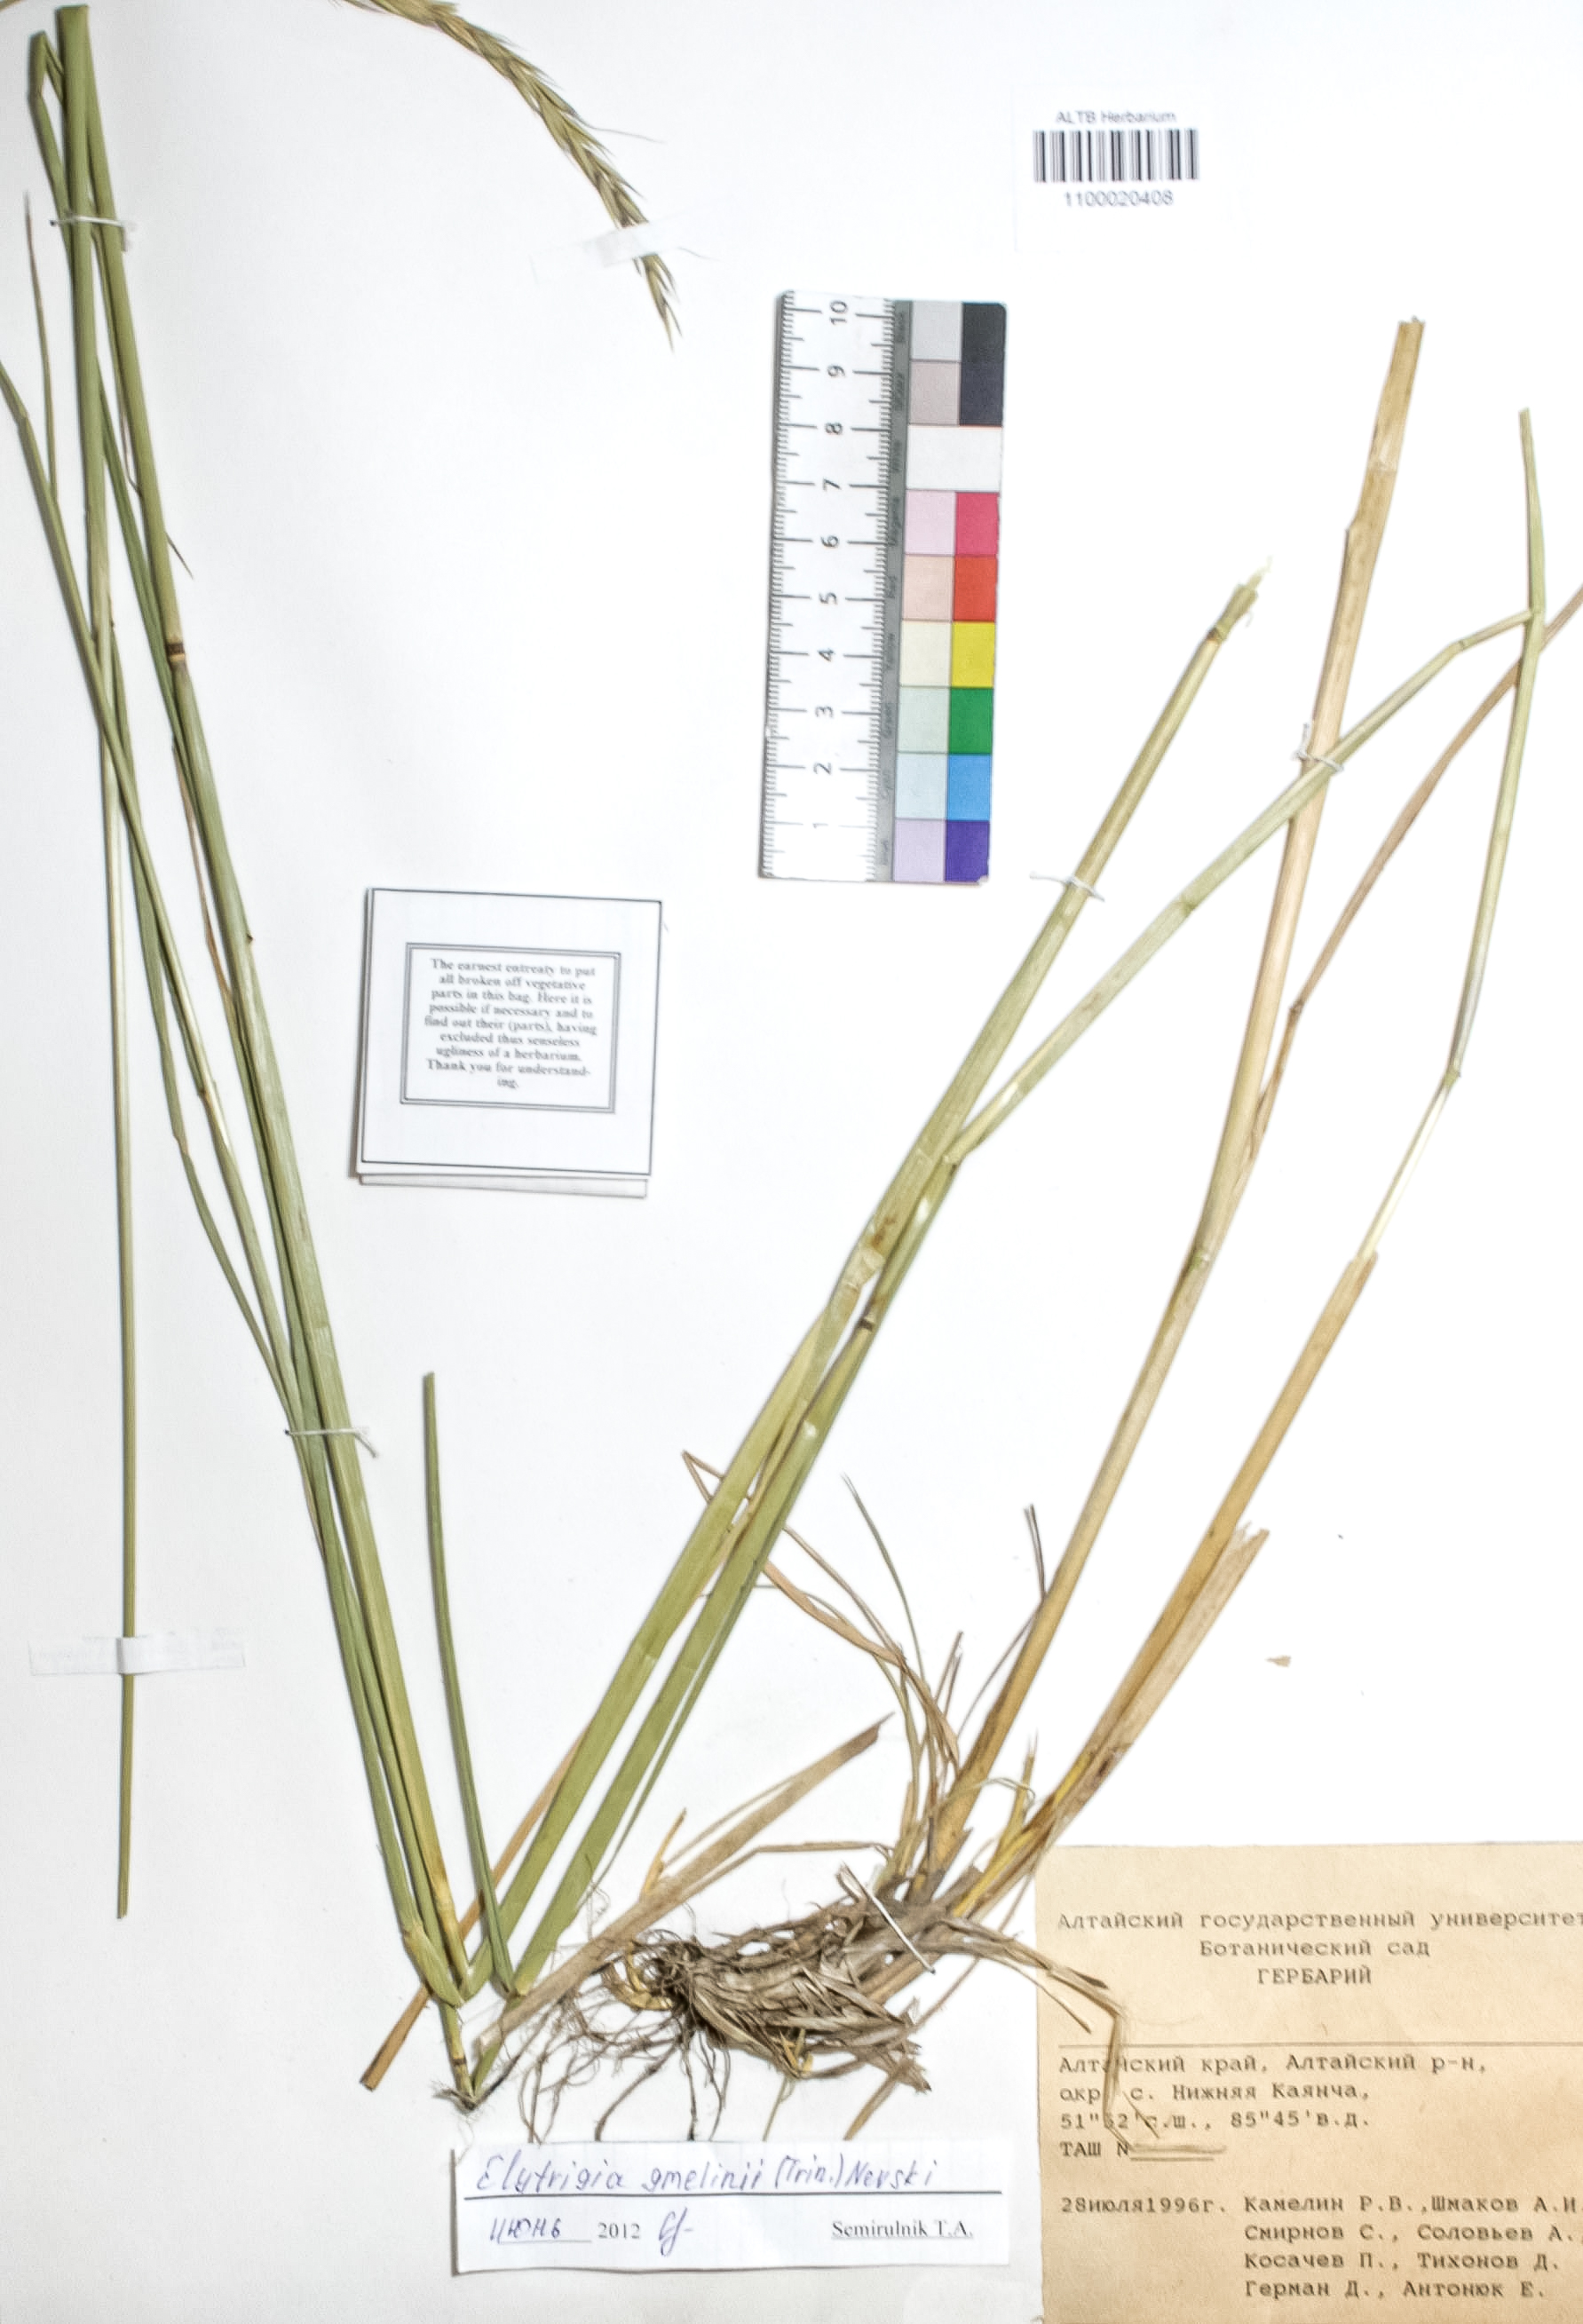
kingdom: Plantae
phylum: Tracheophyta
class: Liliopsida
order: Poales
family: Poaceae
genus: Pseudoroegneria
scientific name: Pseudoroegneria reflexiaristata
